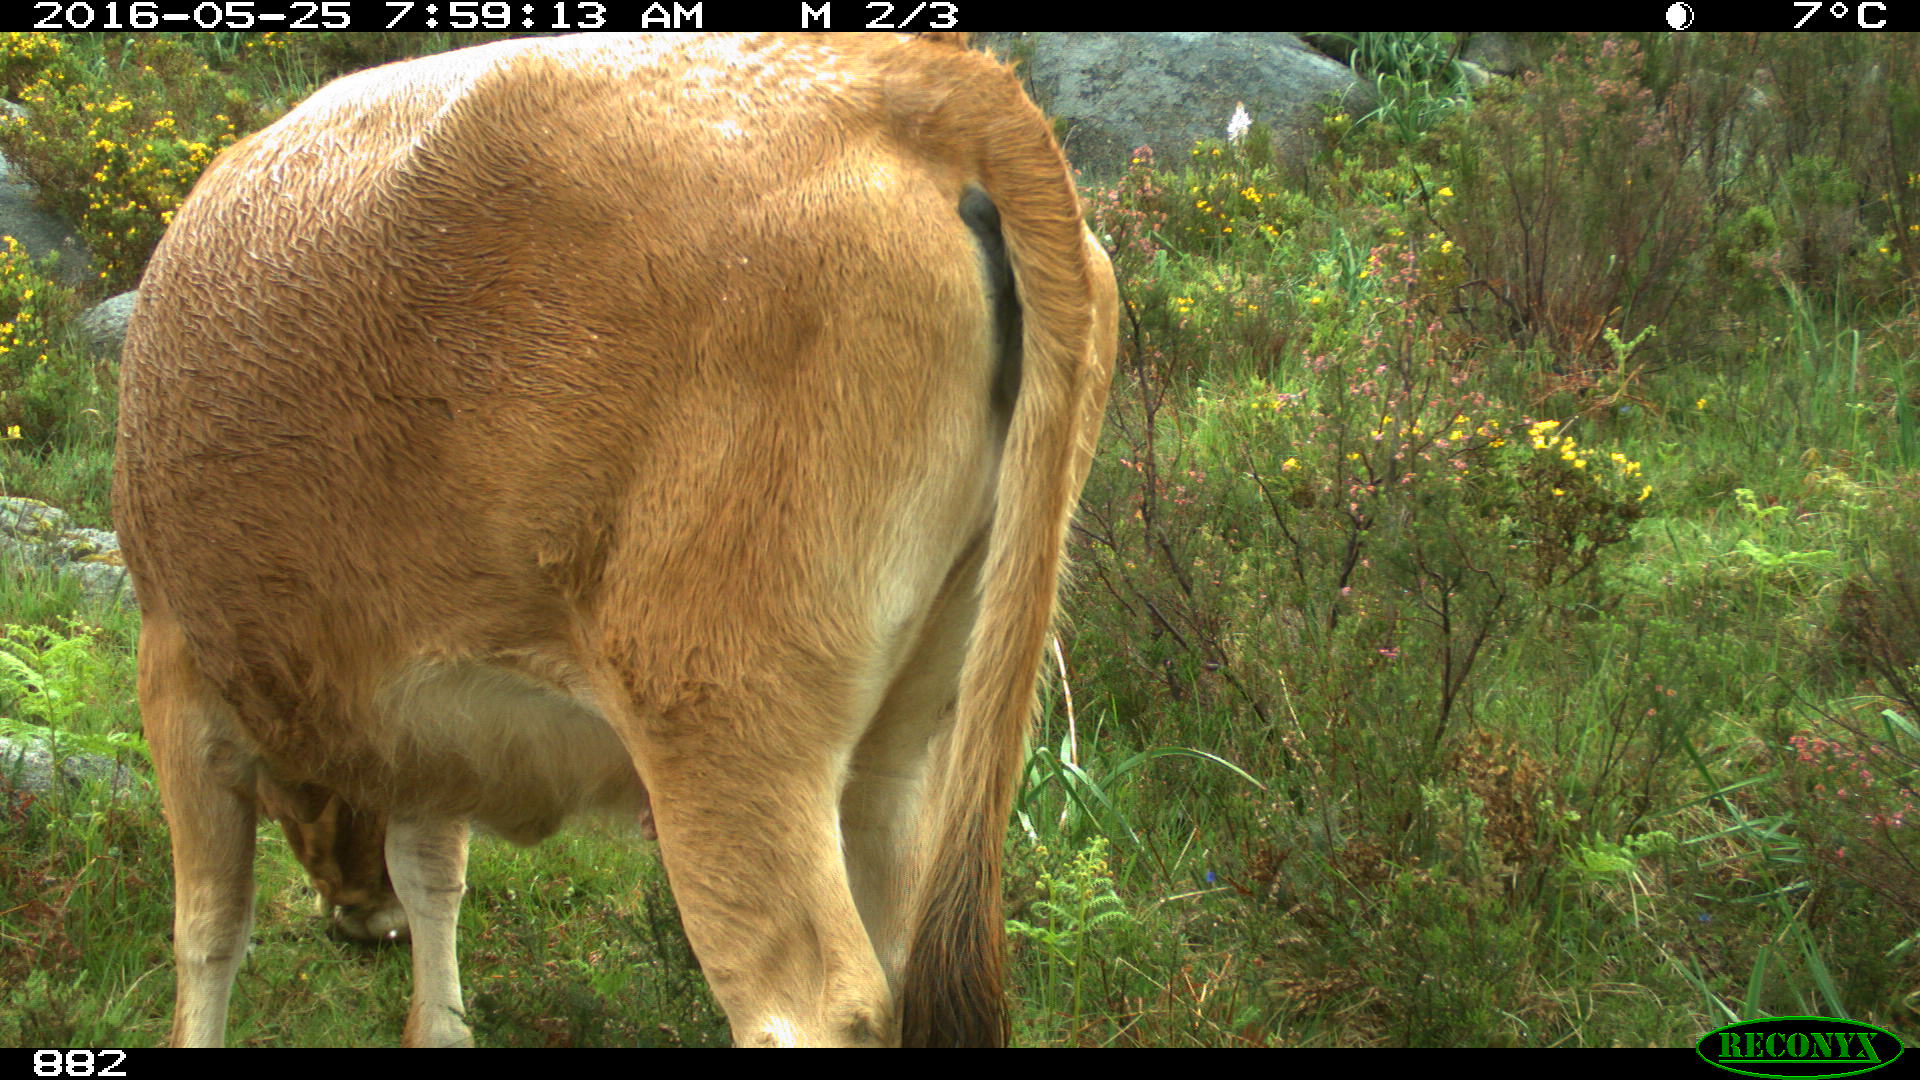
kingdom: Animalia
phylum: Chordata
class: Mammalia
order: Artiodactyla
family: Bovidae
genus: Bos
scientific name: Bos taurus
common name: Domesticated cattle
